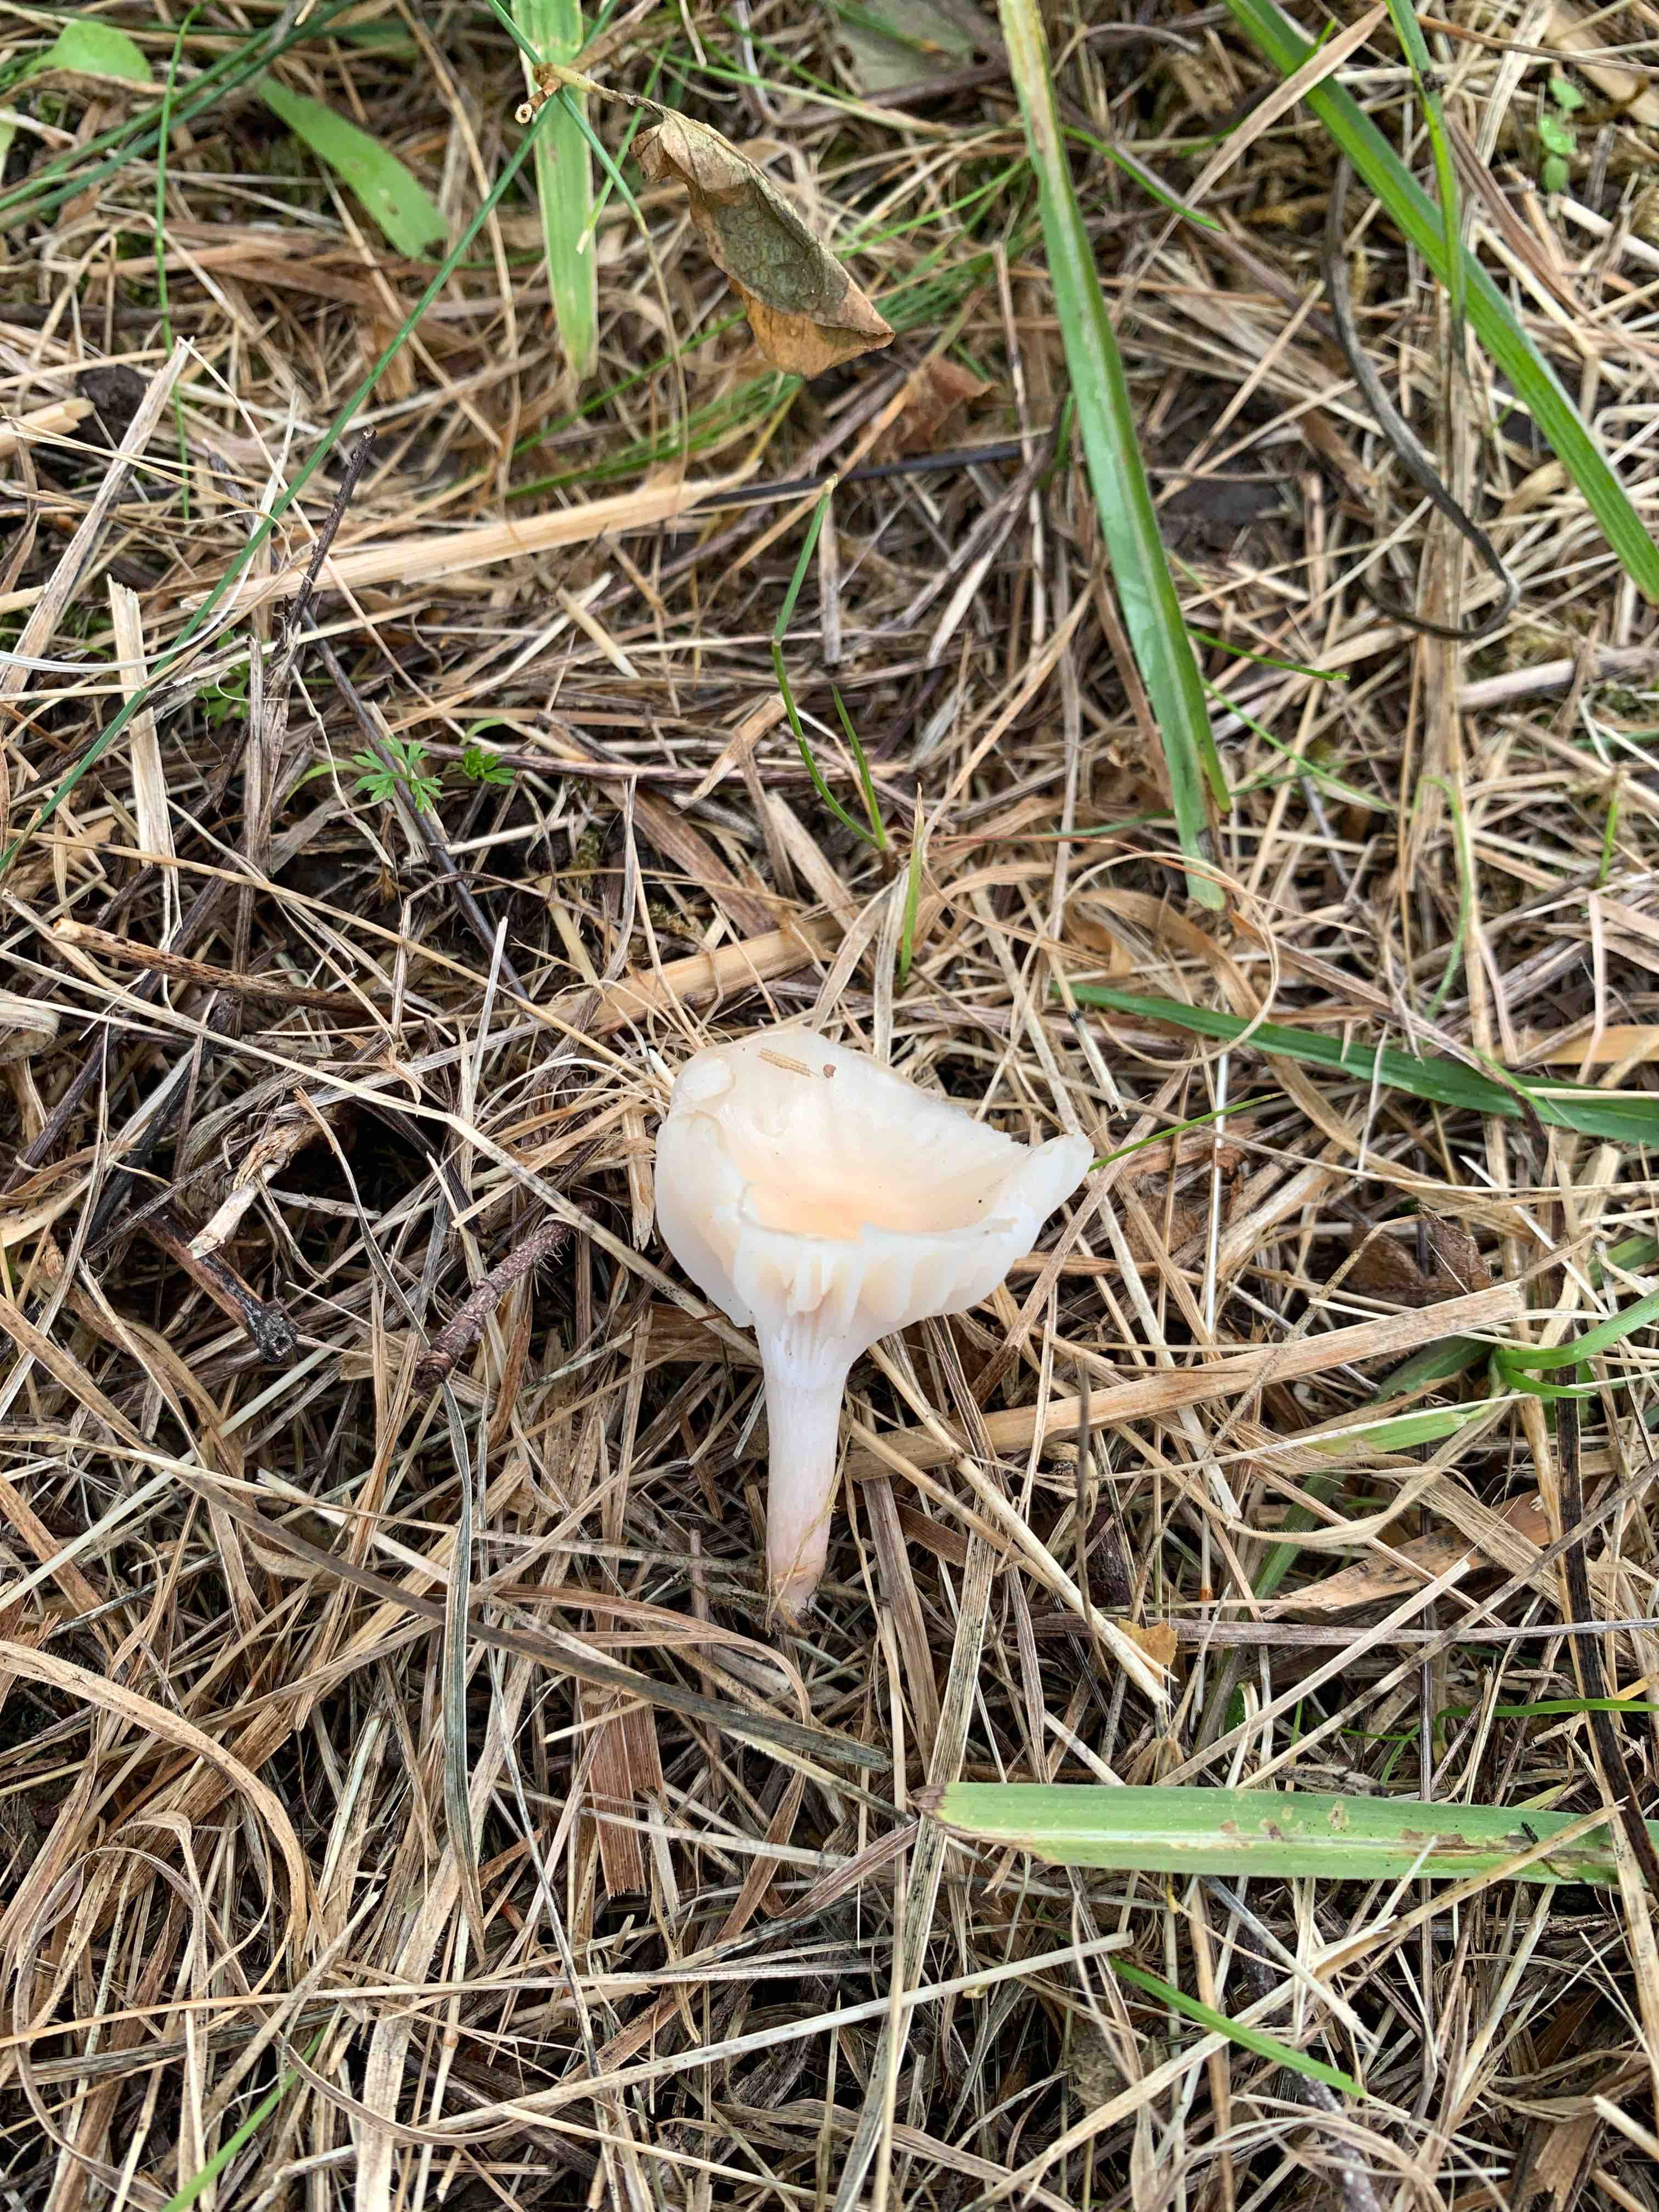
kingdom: Fungi
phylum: Basidiomycota
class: Agaricomycetes
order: Agaricales
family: Hygrophoraceae
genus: Cuphophyllus
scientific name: Cuphophyllus
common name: vokshat
